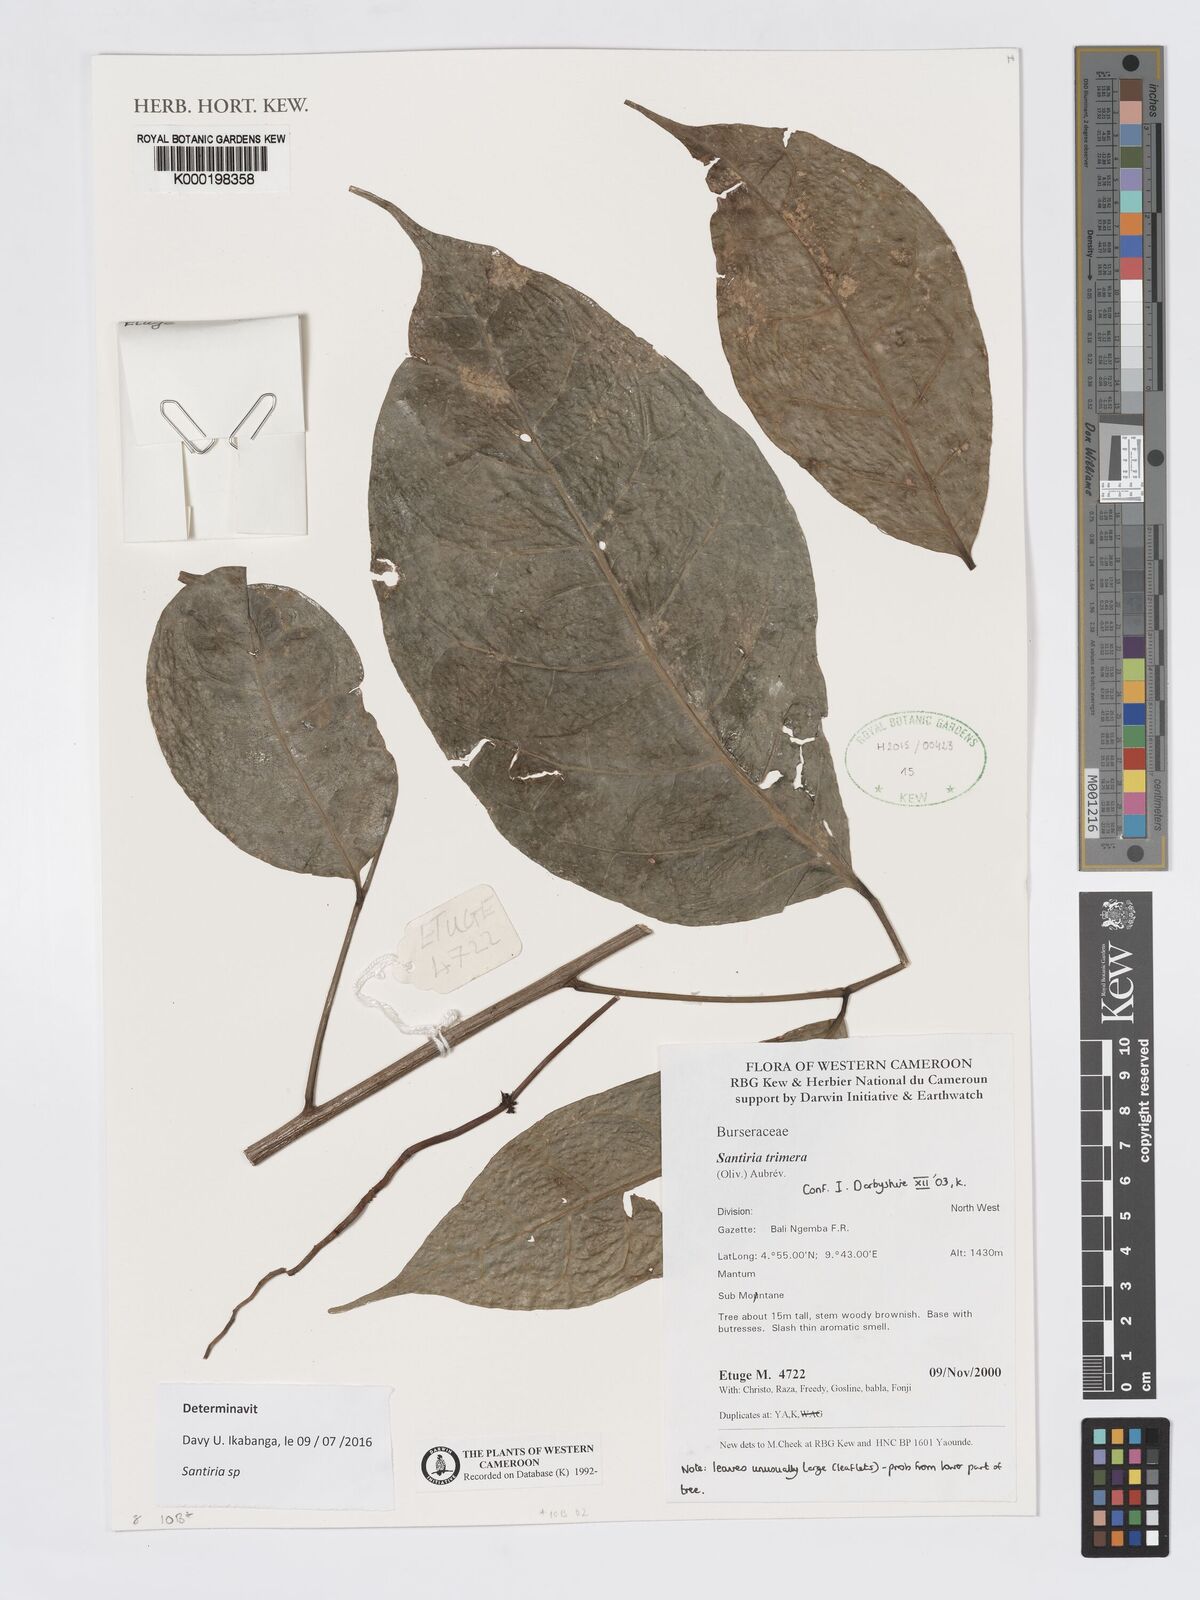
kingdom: Plantae
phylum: Tracheophyta
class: Magnoliopsida
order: Sapindales
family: Burseraceae
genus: Santiria
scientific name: Santiria
